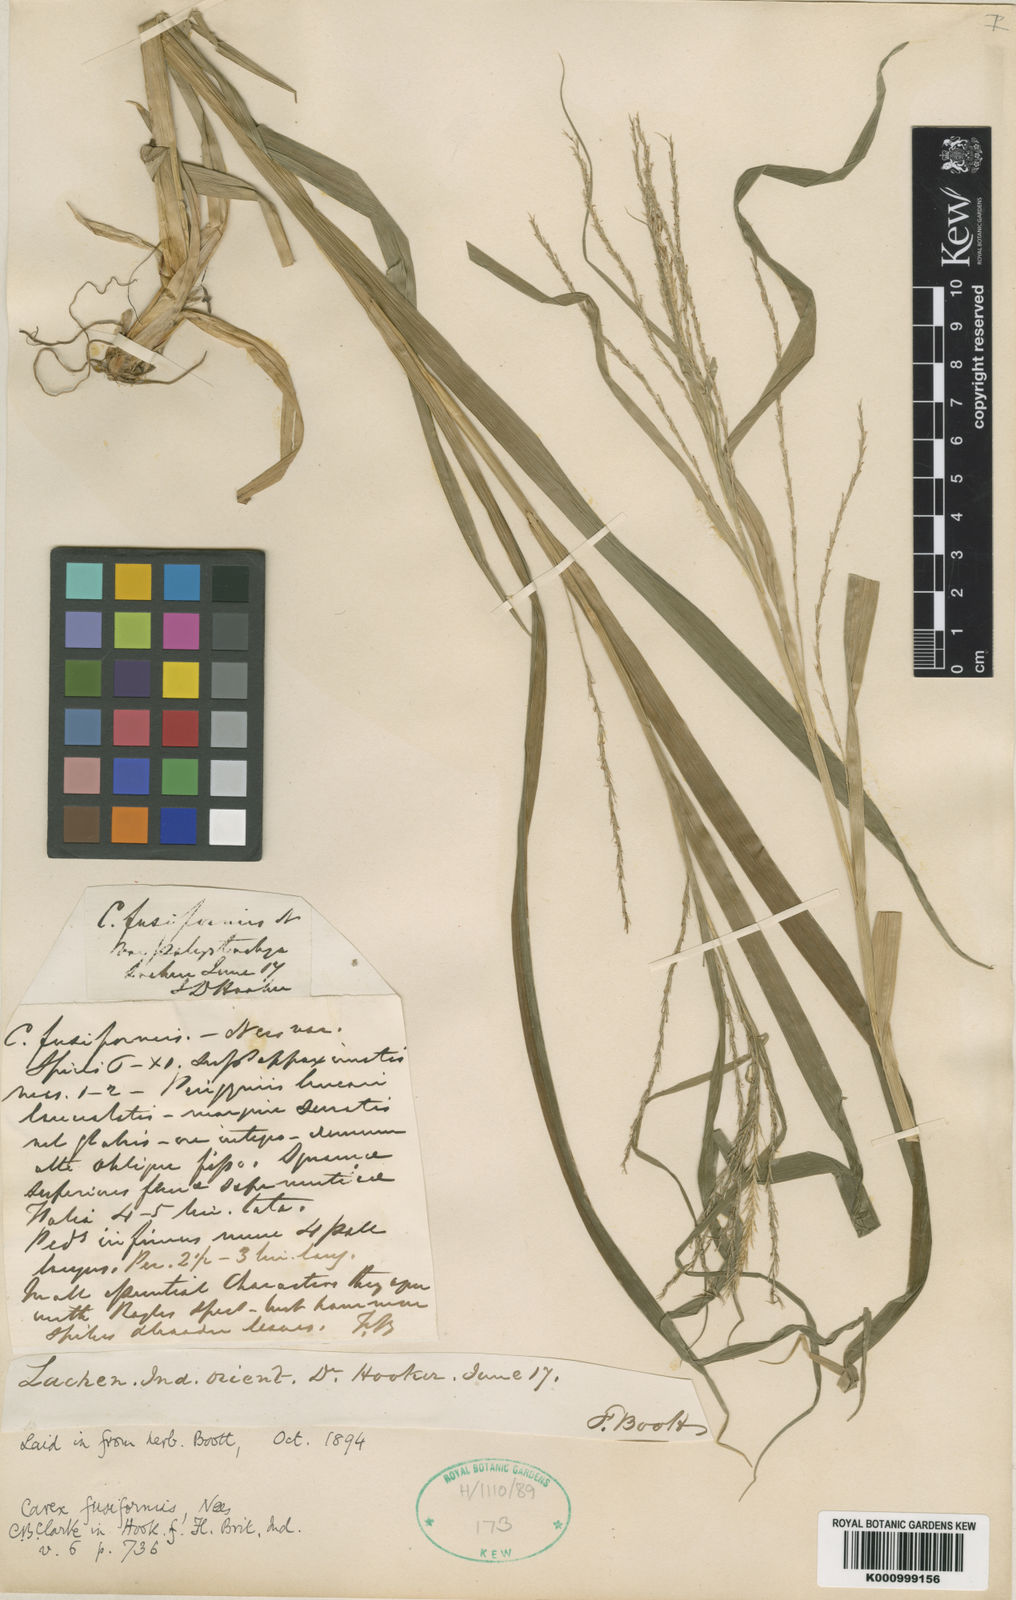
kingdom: Plantae
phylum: Tracheophyta
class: Liliopsida
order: Poales
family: Cyperaceae
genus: Carex
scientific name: Carex fusiformis
